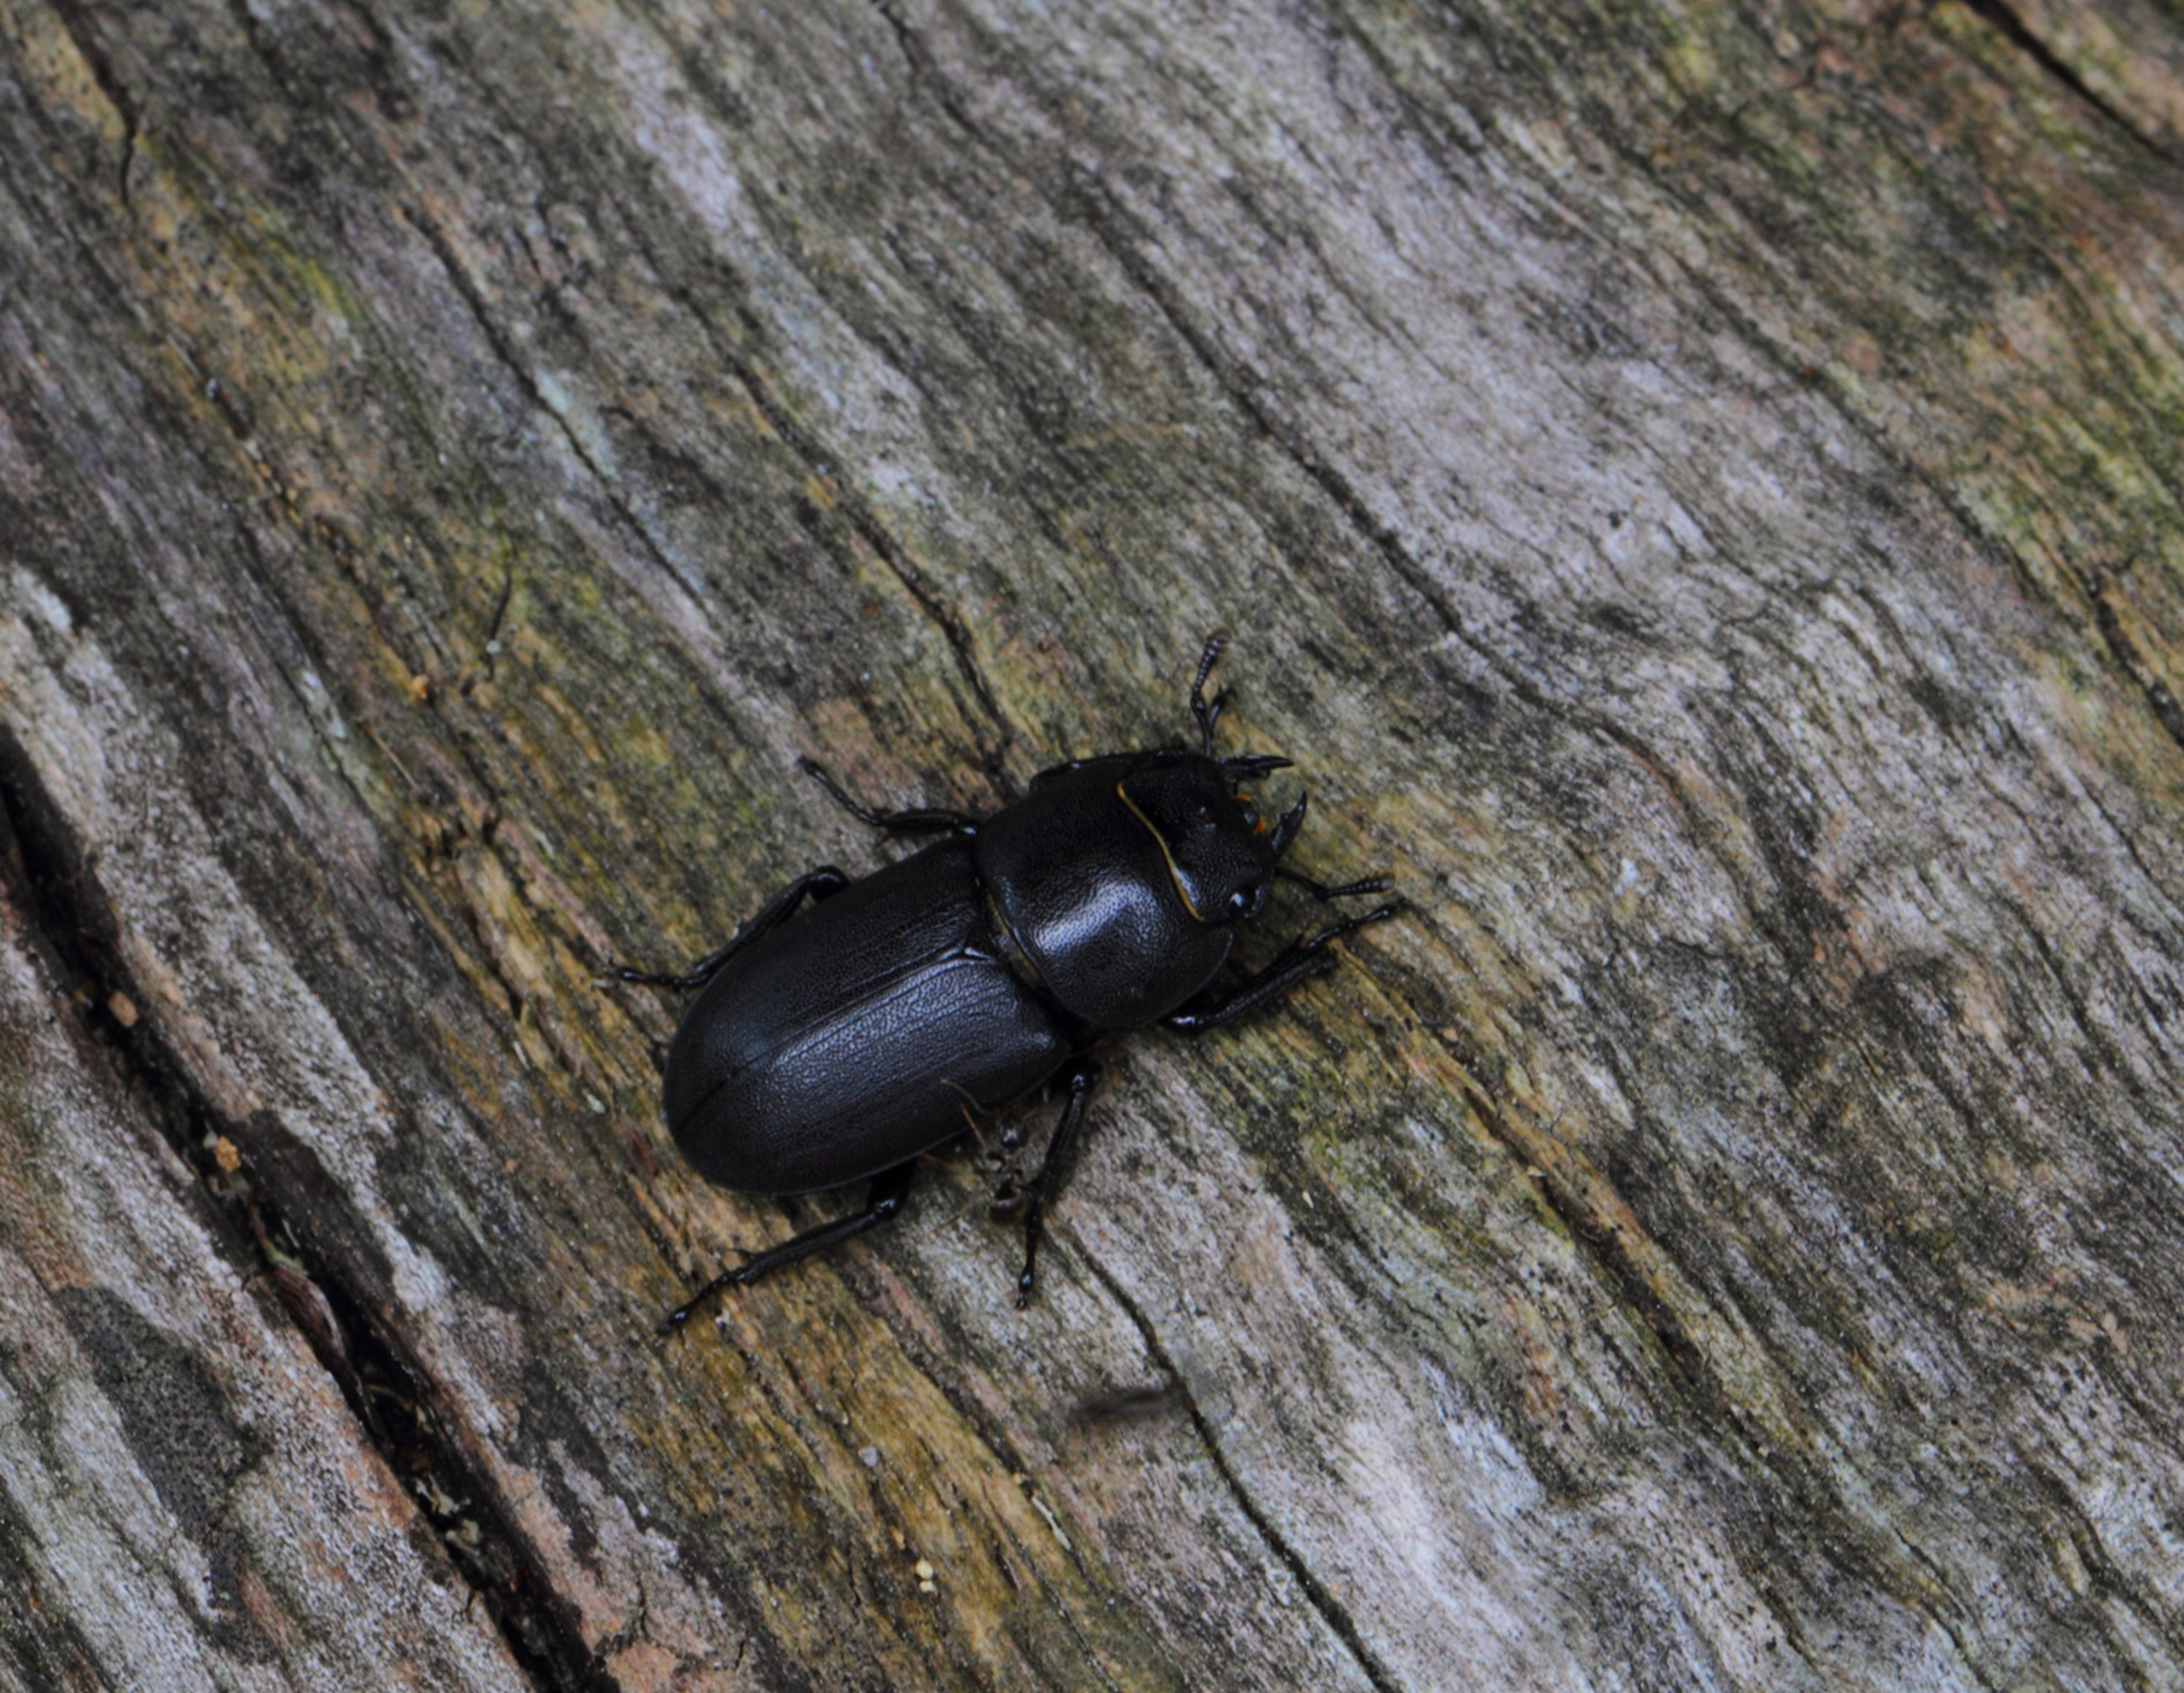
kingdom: Animalia
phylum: Arthropoda
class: Insecta
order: Coleoptera
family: Lucanidae
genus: Dorcus
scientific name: Dorcus parallelipipedus
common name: Bøghjort
